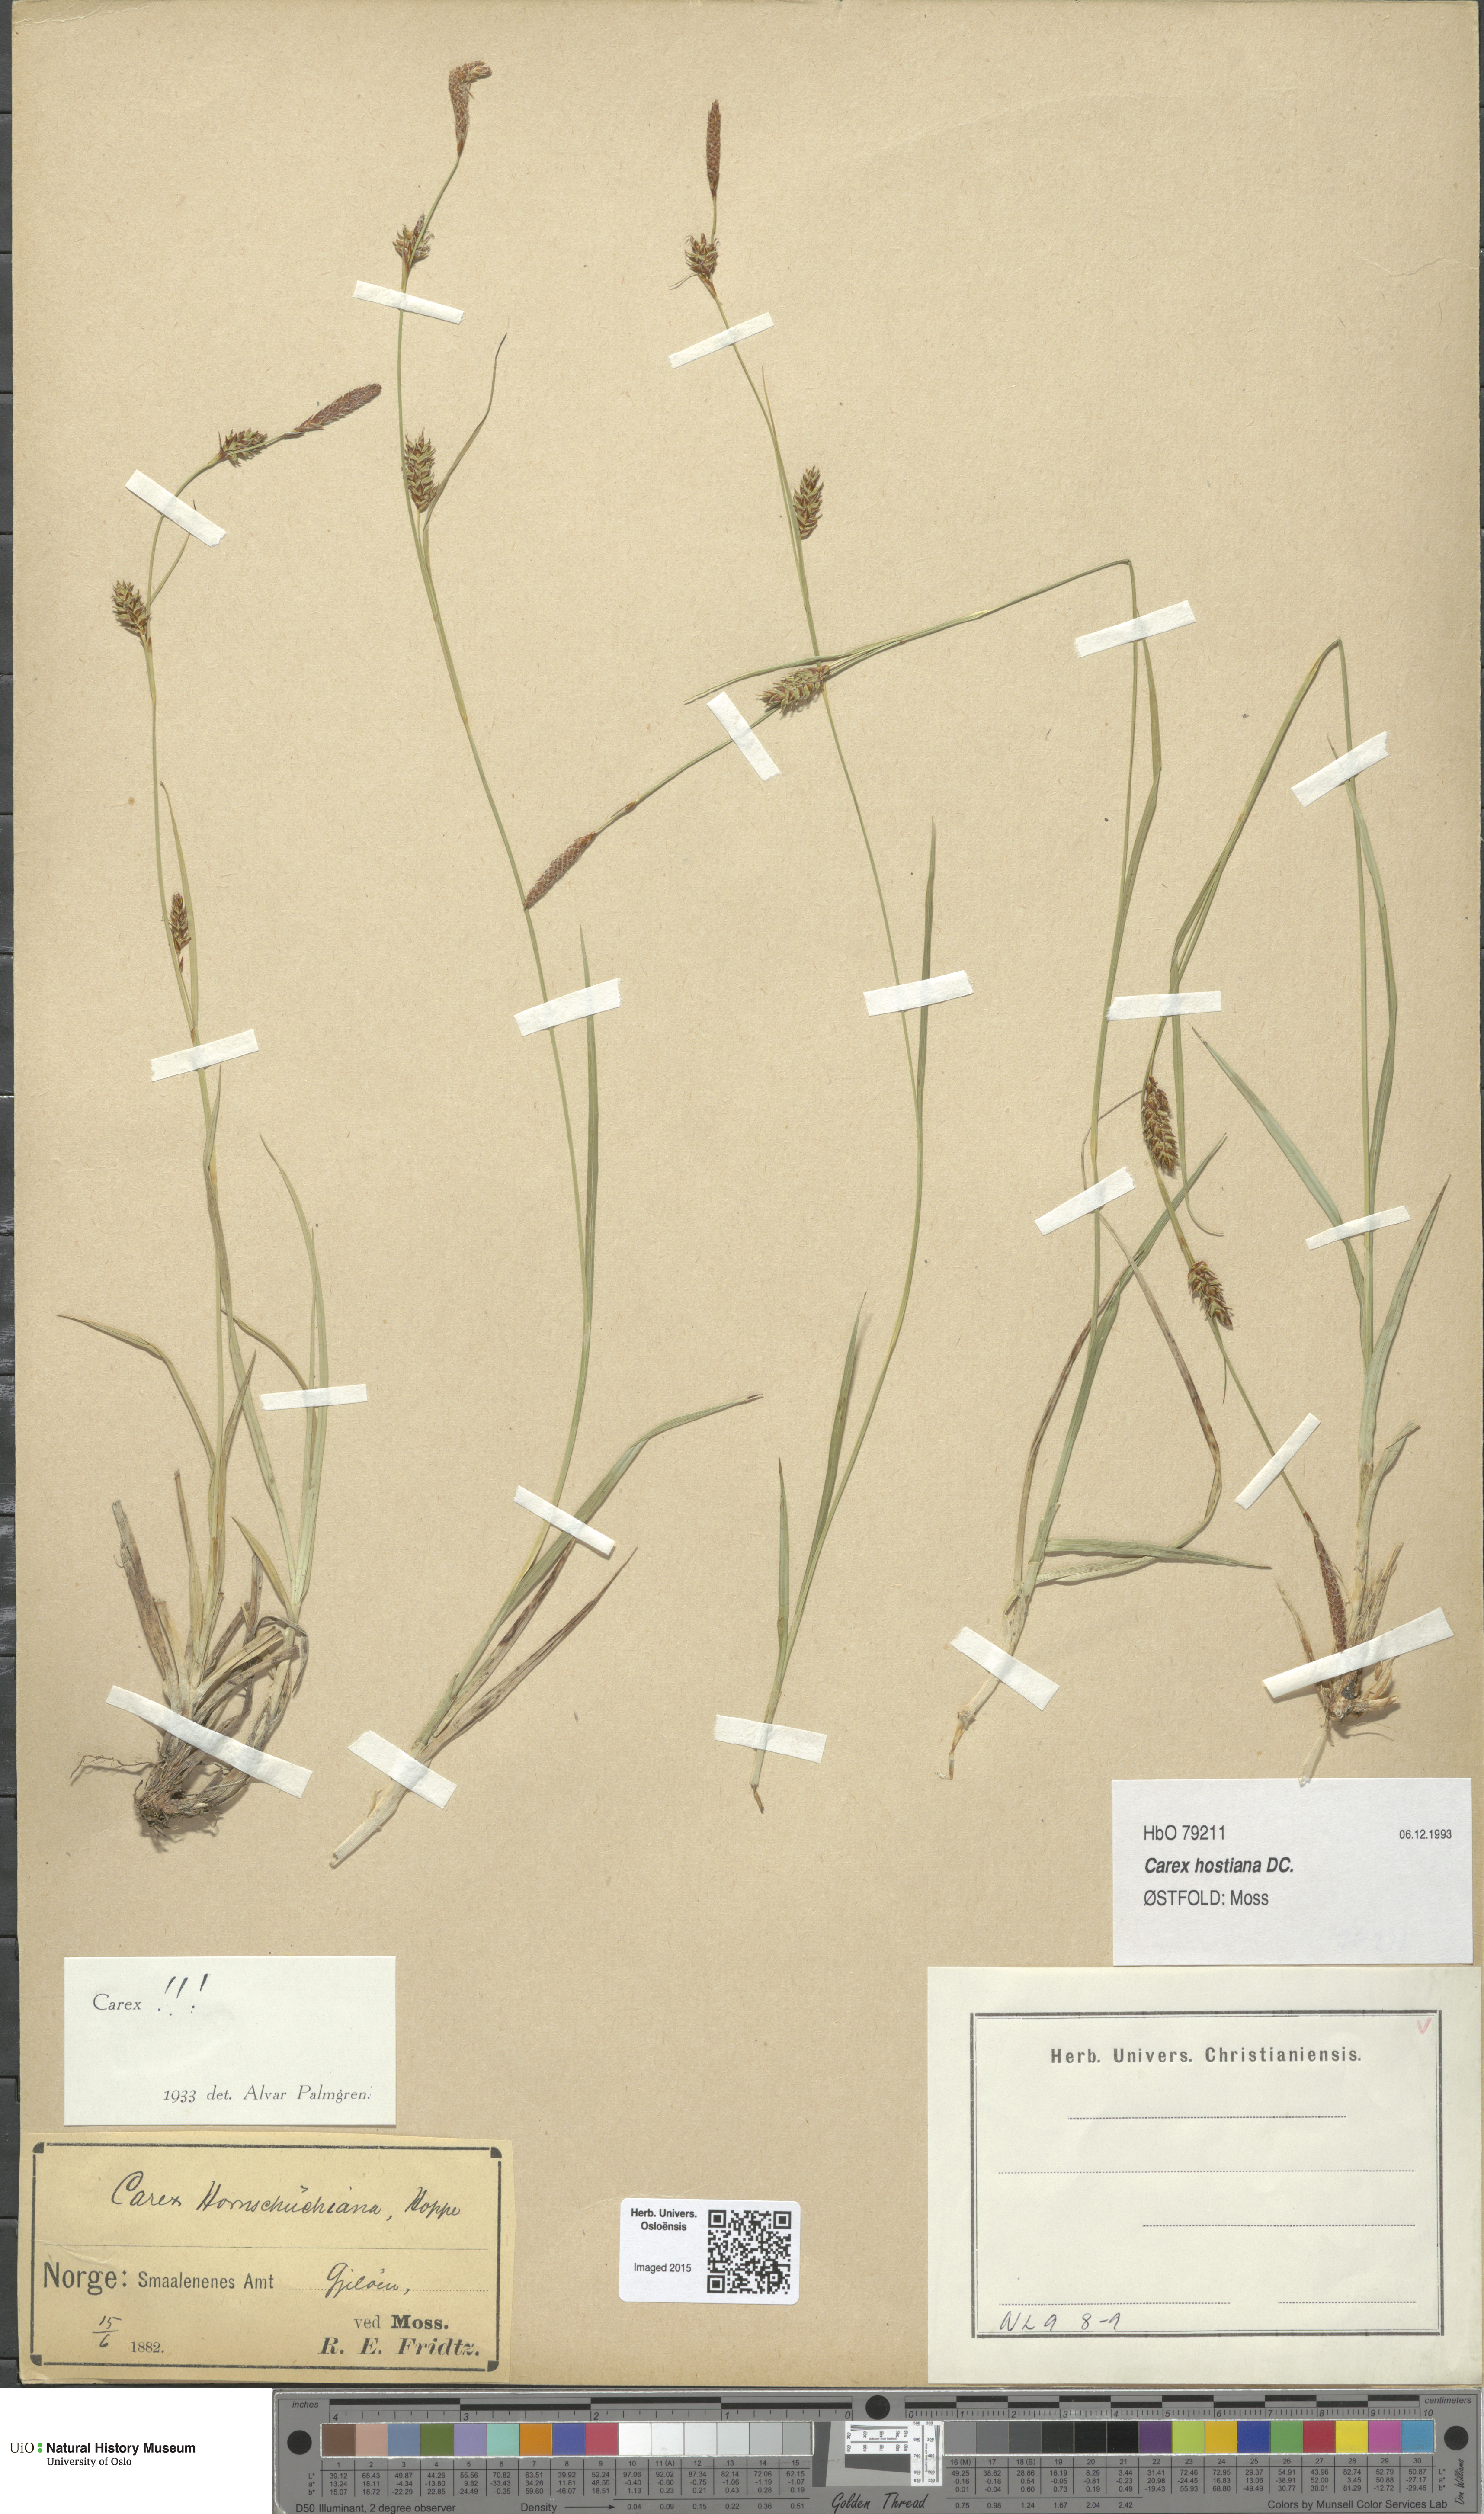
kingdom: Plantae
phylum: Tracheophyta
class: Liliopsida
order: Poales
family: Cyperaceae
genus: Carex
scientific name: Carex hostiana
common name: Tawny sedge
